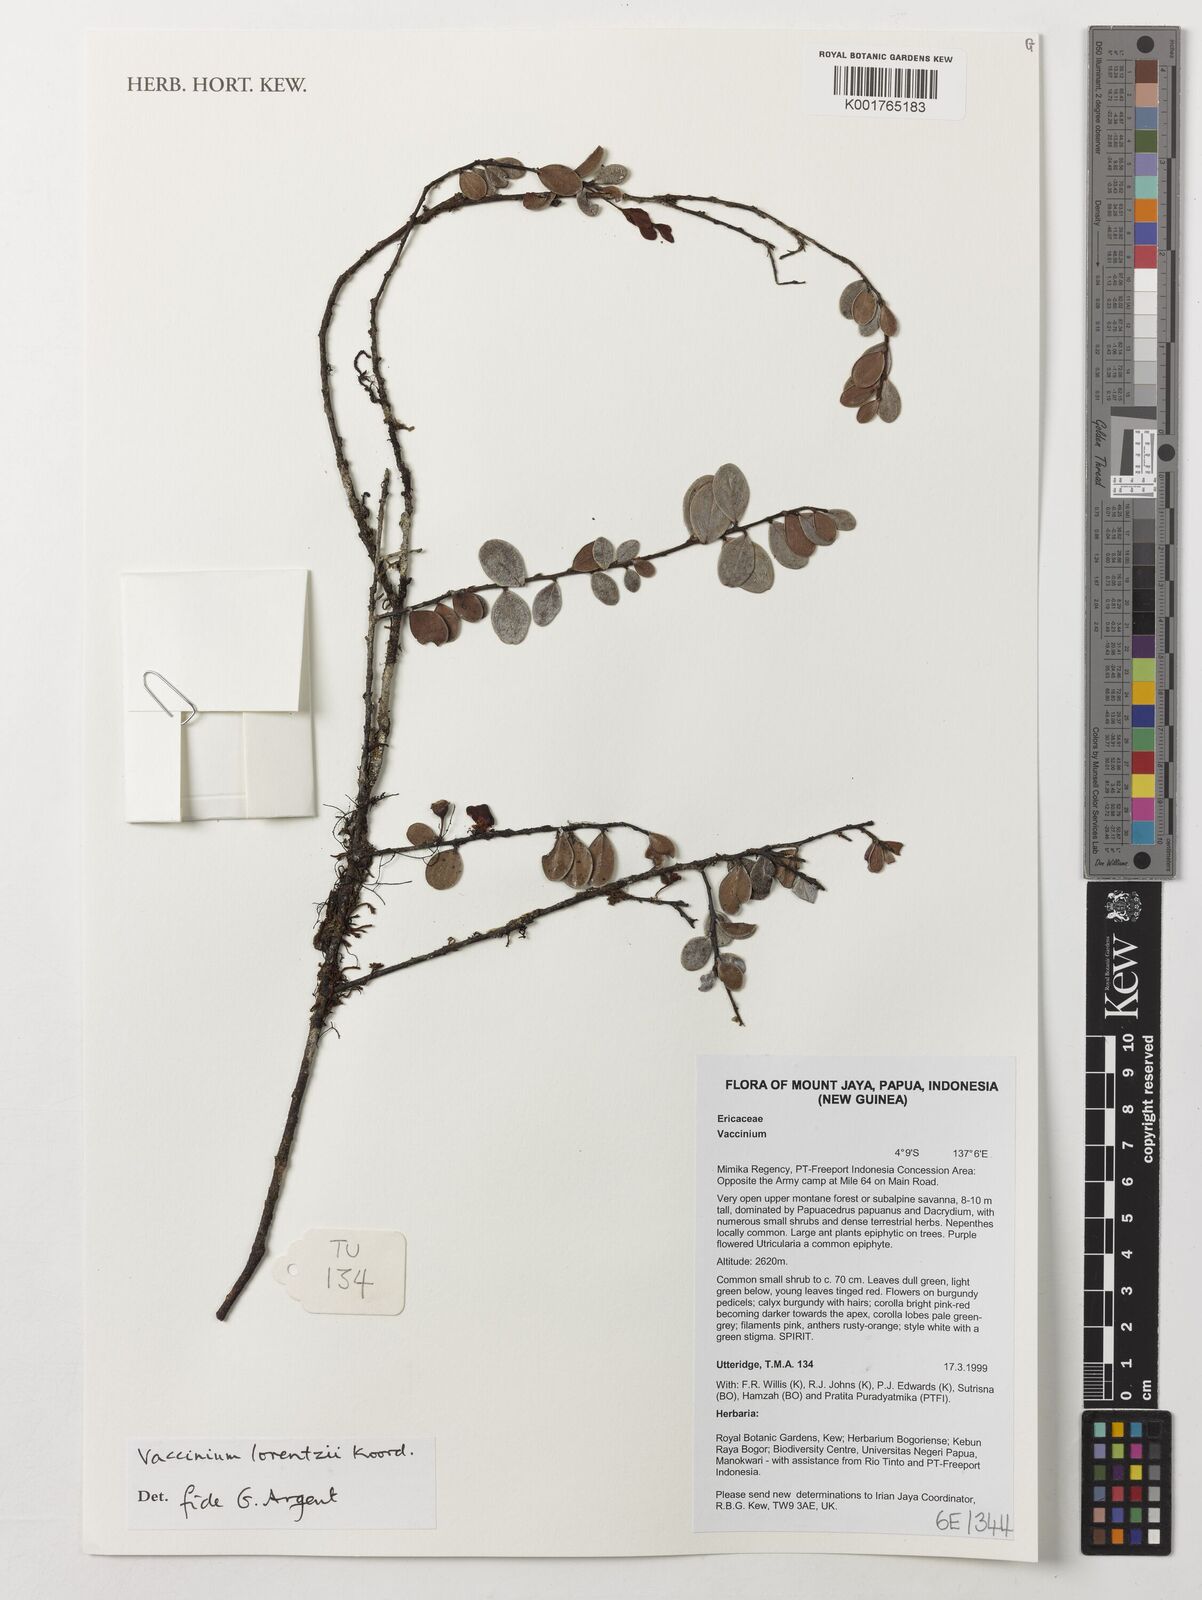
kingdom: Plantae
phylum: Tracheophyta
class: Magnoliopsida
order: Ericales
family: Ericaceae
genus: Vaccinium
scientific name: Vaccinium lorentzii
